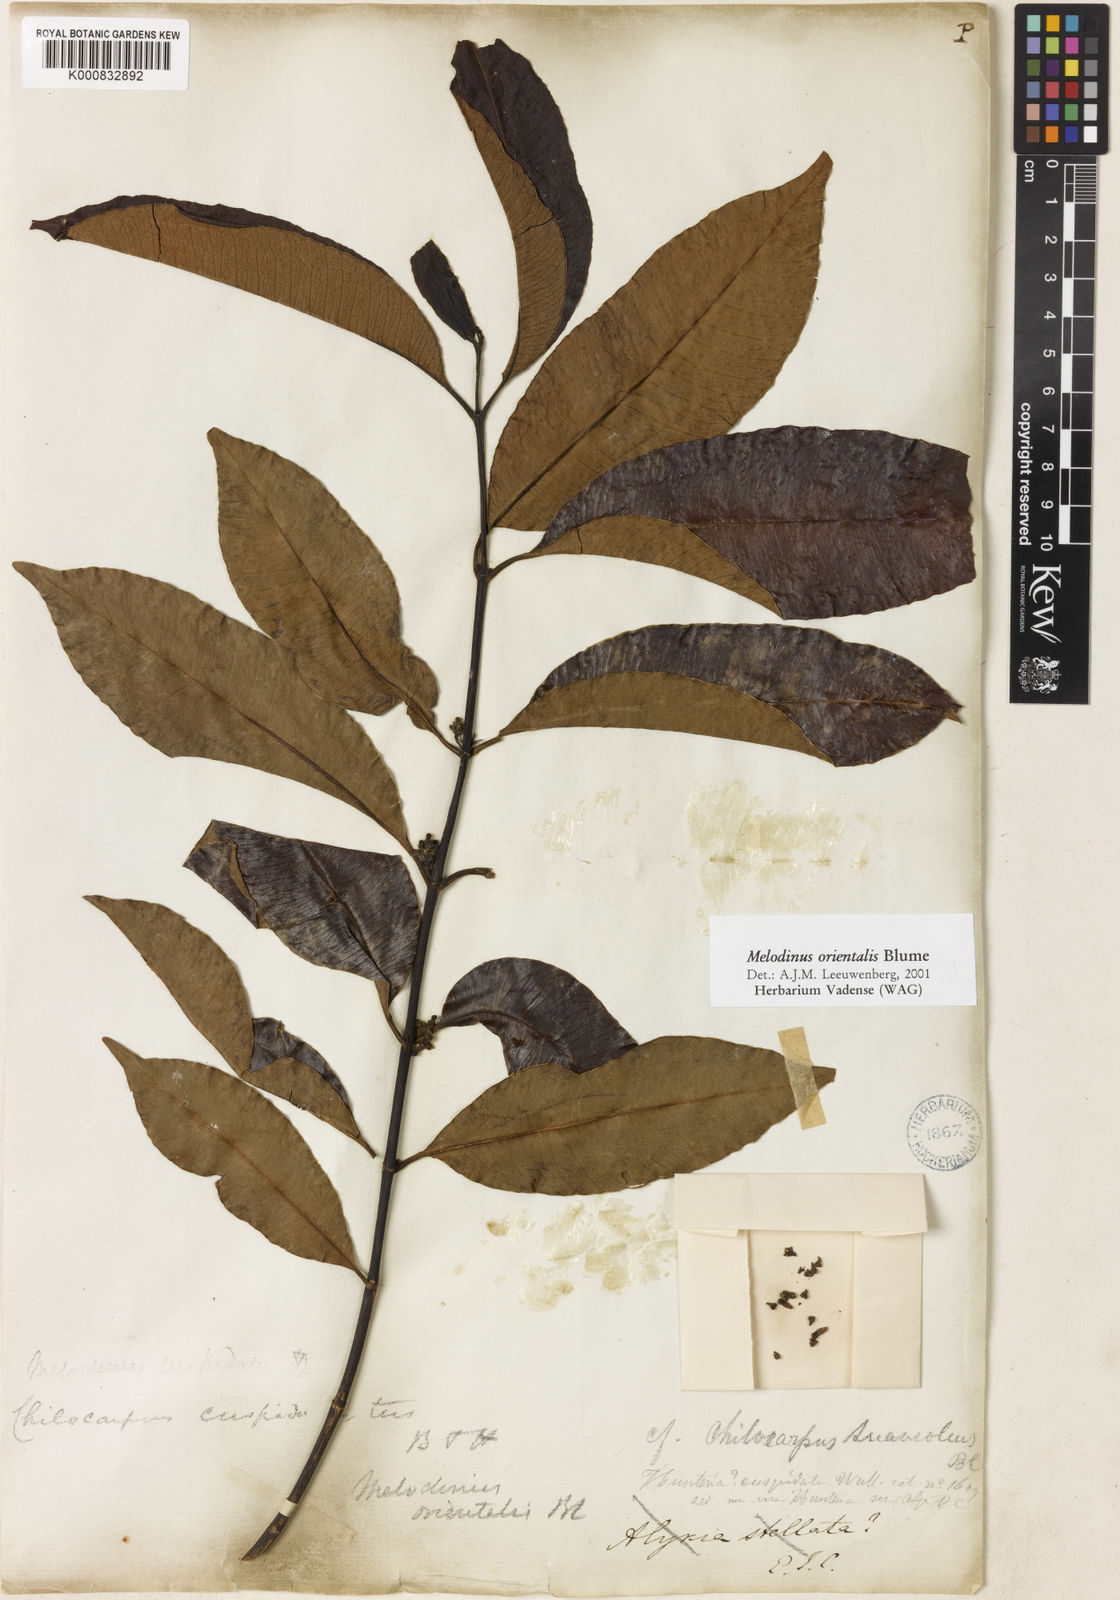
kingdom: Plantae
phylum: Tracheophyta
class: Magnoliopsida
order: Gentianales
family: Apocynaceae
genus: Melodinus
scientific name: Melodinus orientalis
